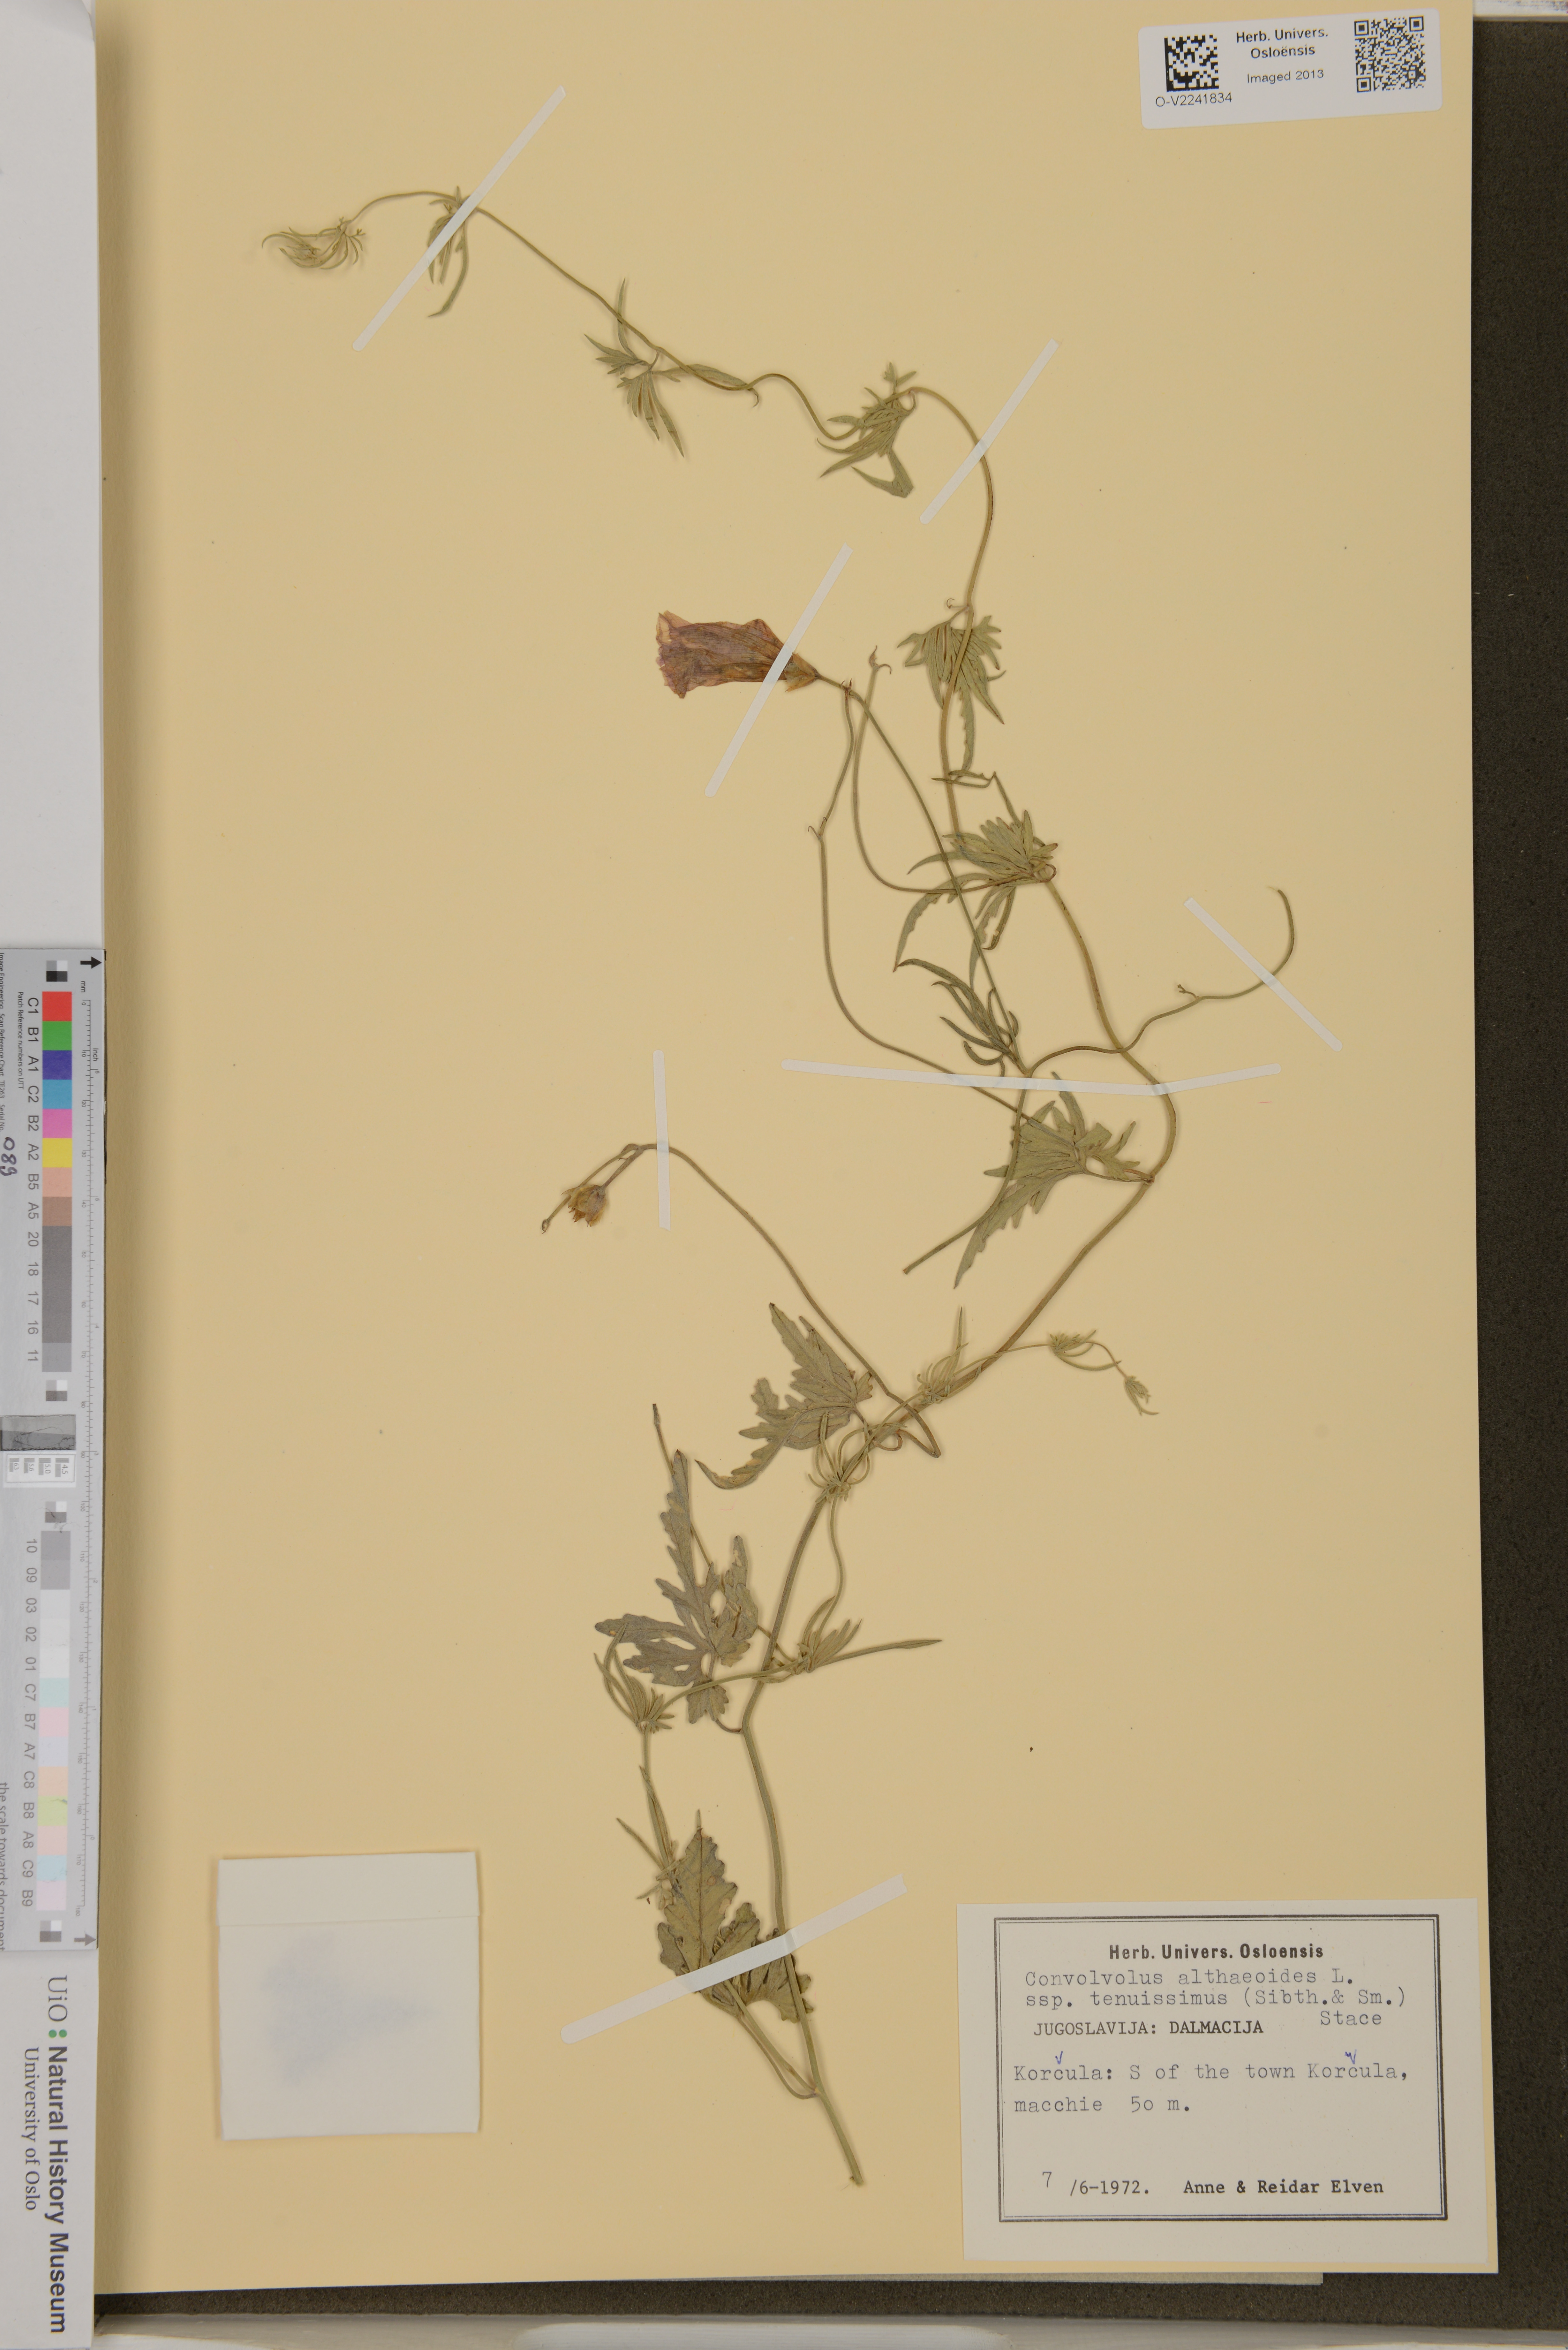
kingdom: Plantae
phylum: Tracheophyta
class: Magnoliopsida
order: Solanales
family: Convolvulaceae
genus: Convolvulus
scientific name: Convolvulus althaeoides
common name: Mallow bindweed
